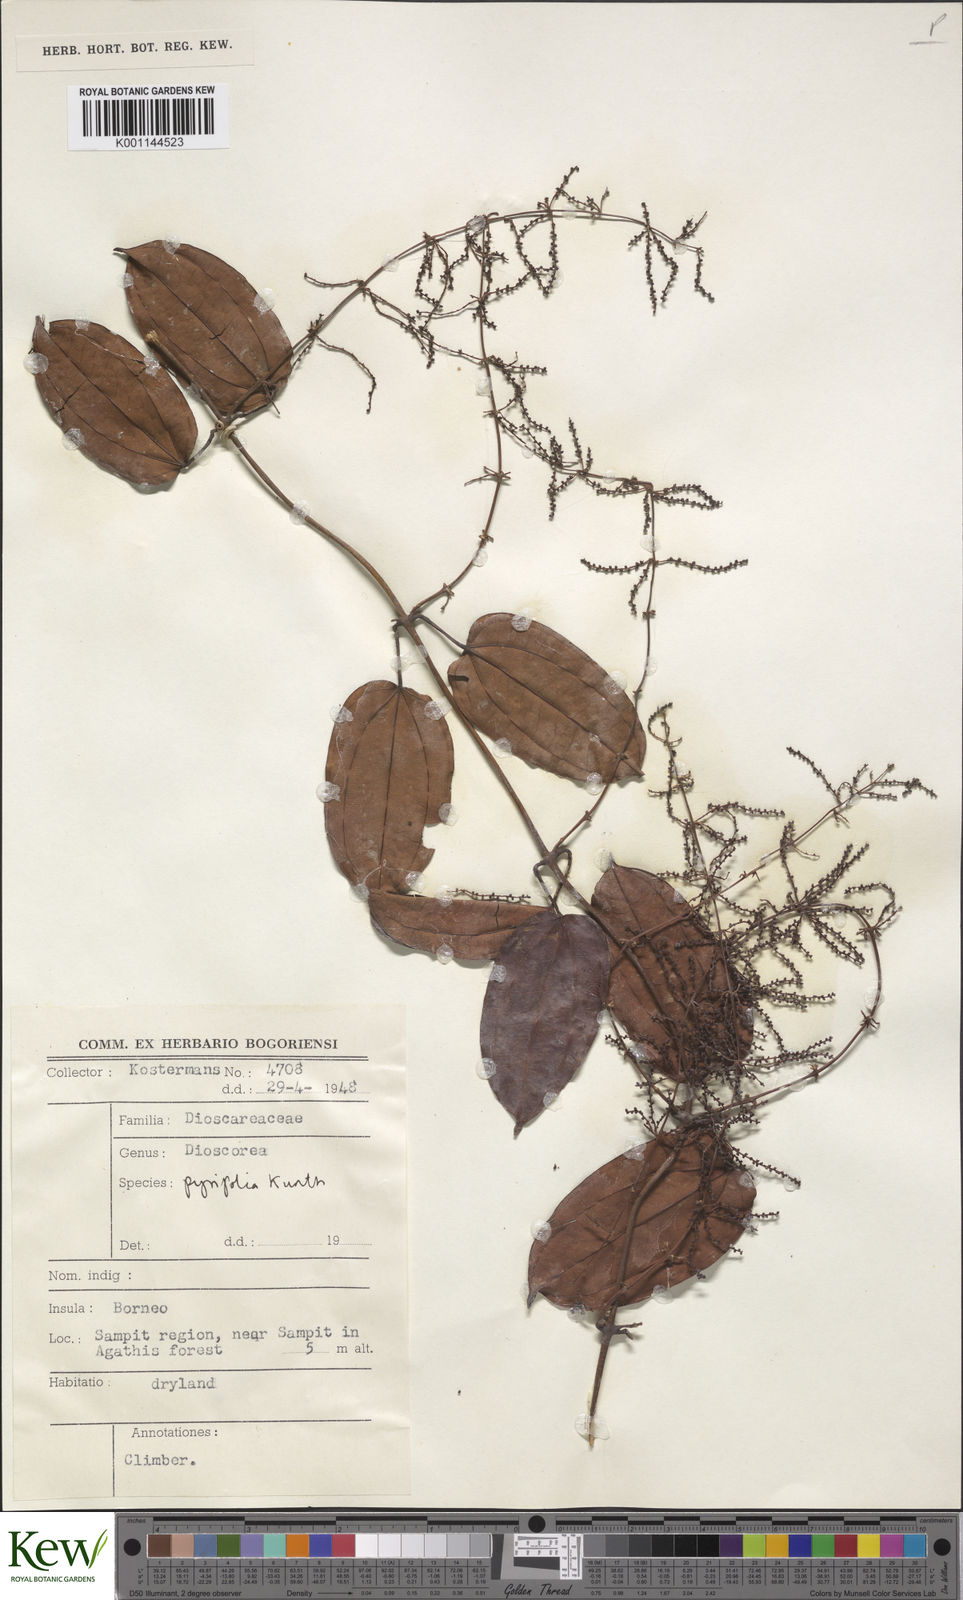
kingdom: Plantae
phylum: Tracheophyta
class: Liliopsida
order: Dioscoreales
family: Dioscoreaceae
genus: Dioscorea
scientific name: Dioscorea pyrifolia
